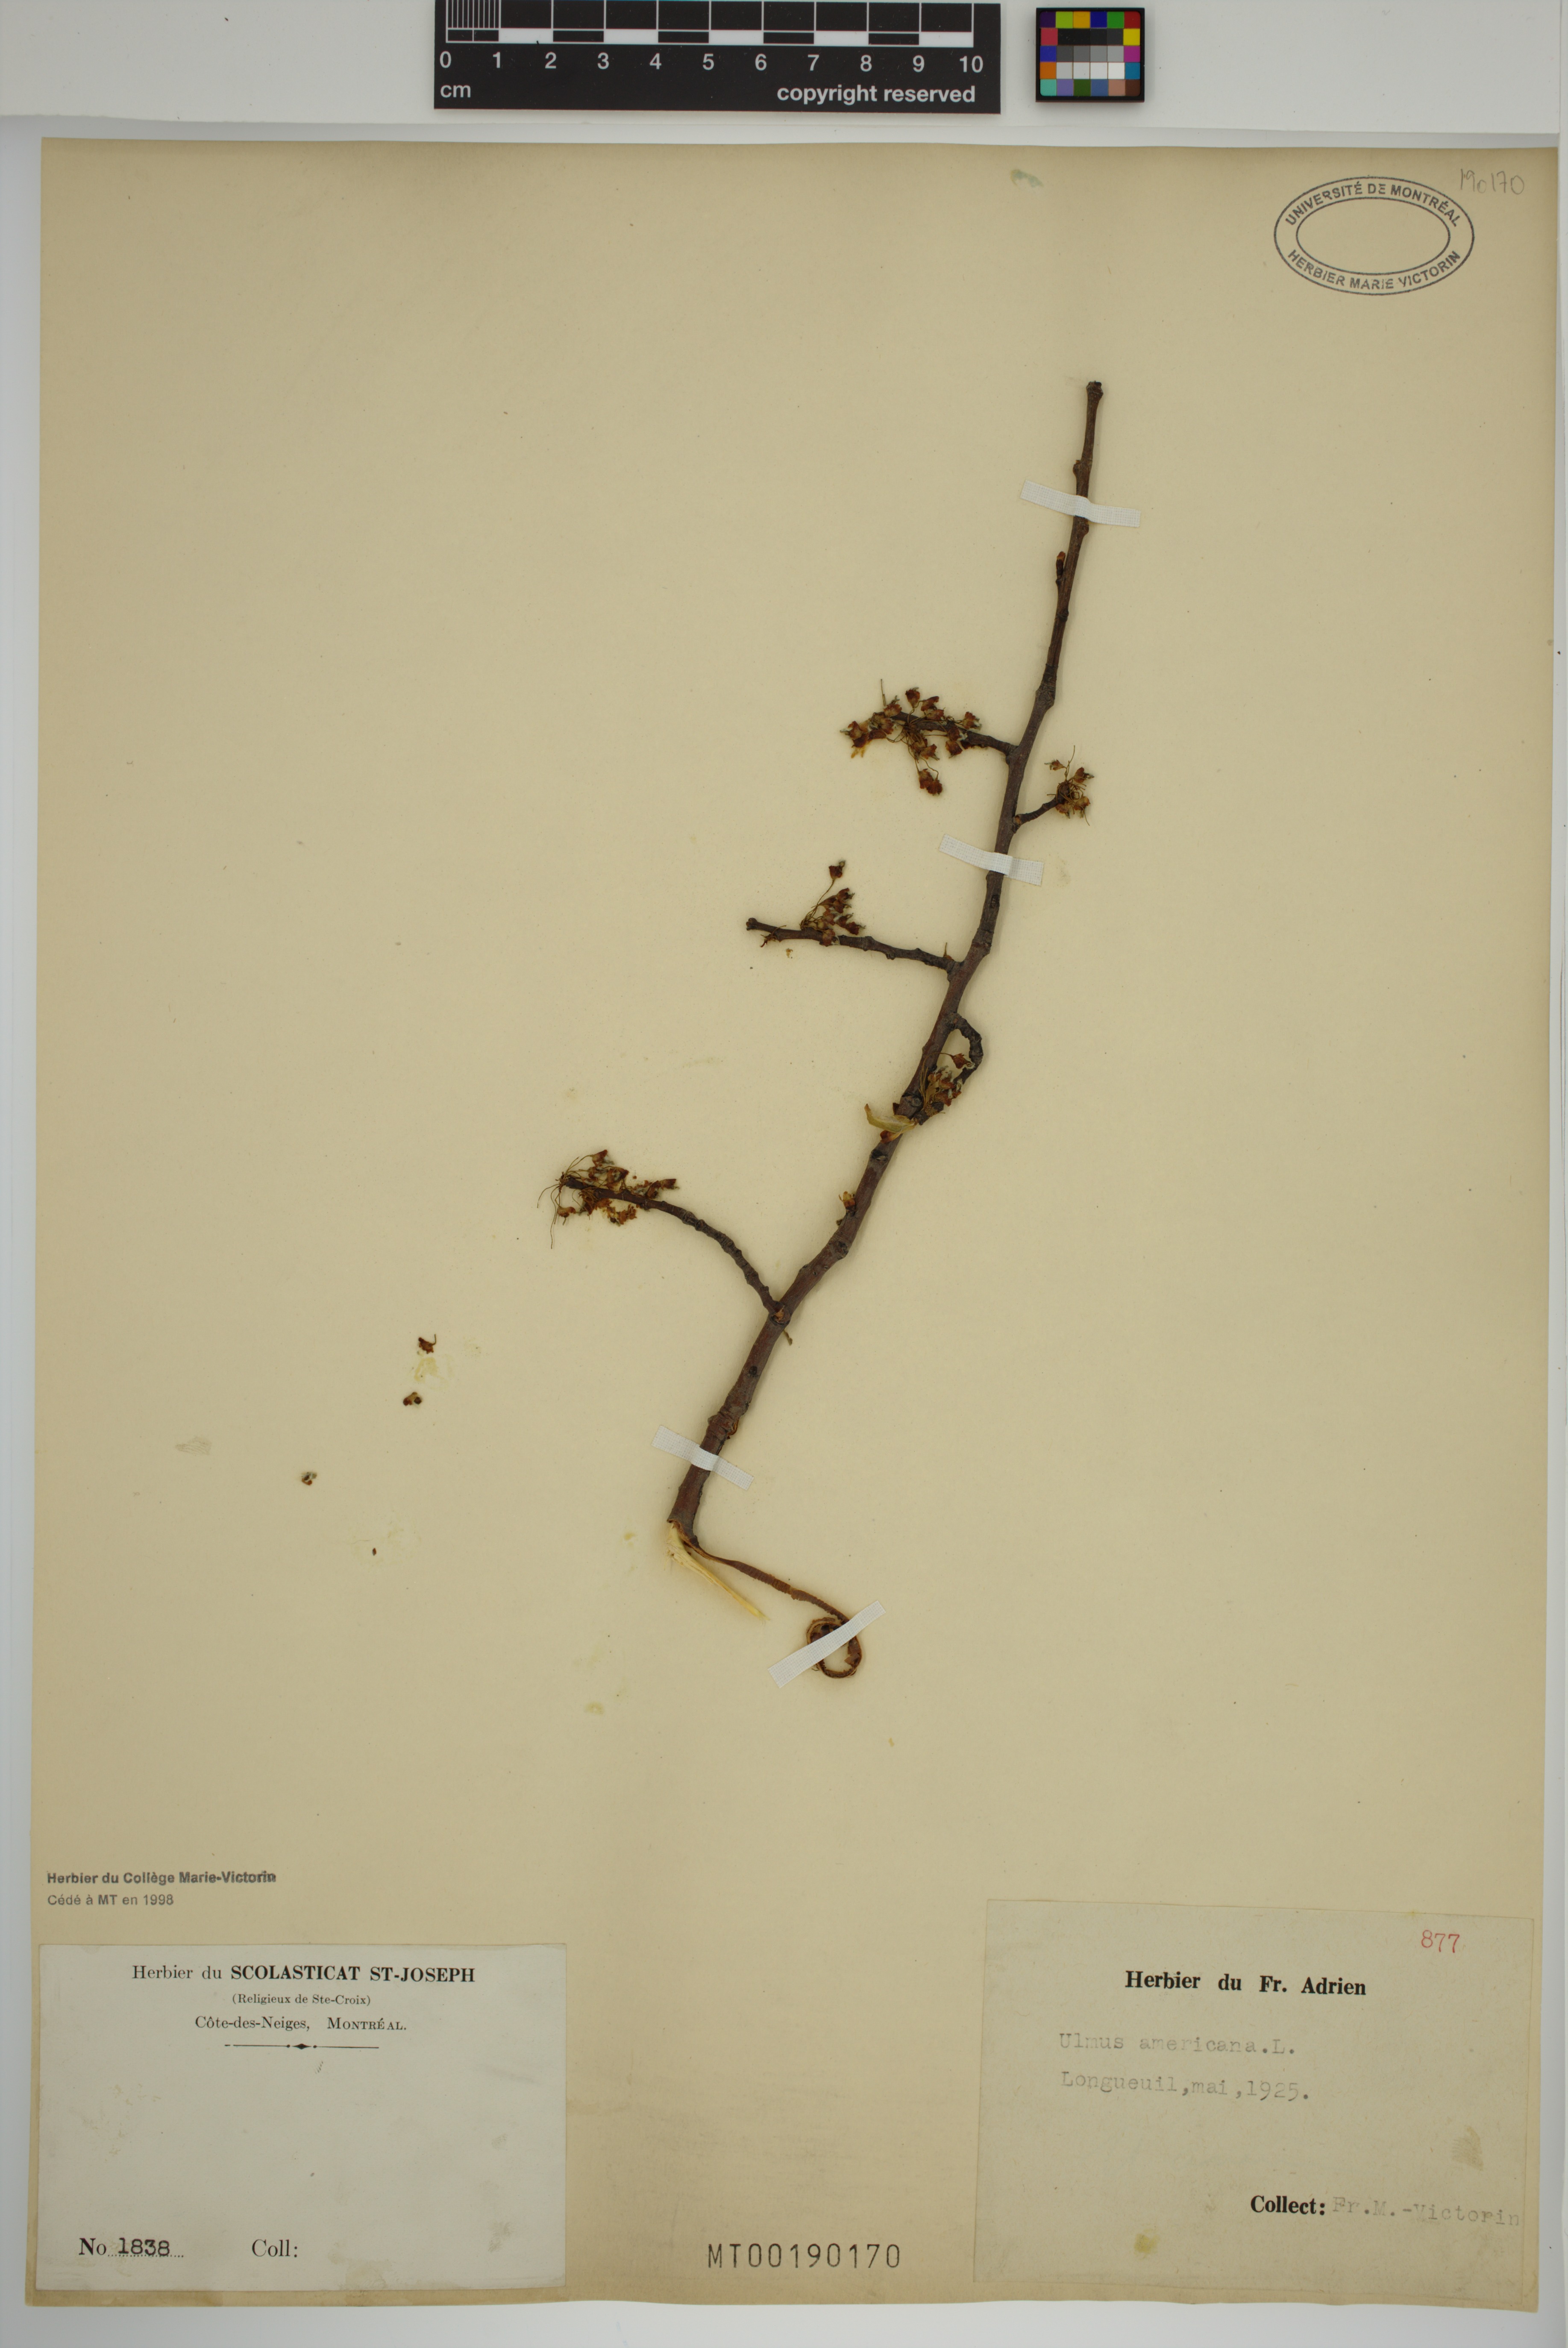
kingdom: Plantae
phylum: Tracheophyta
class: Magnoliopsida
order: Rosales
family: Ulmaceae
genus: Ulmus
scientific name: Ulmus americana
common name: American elm
